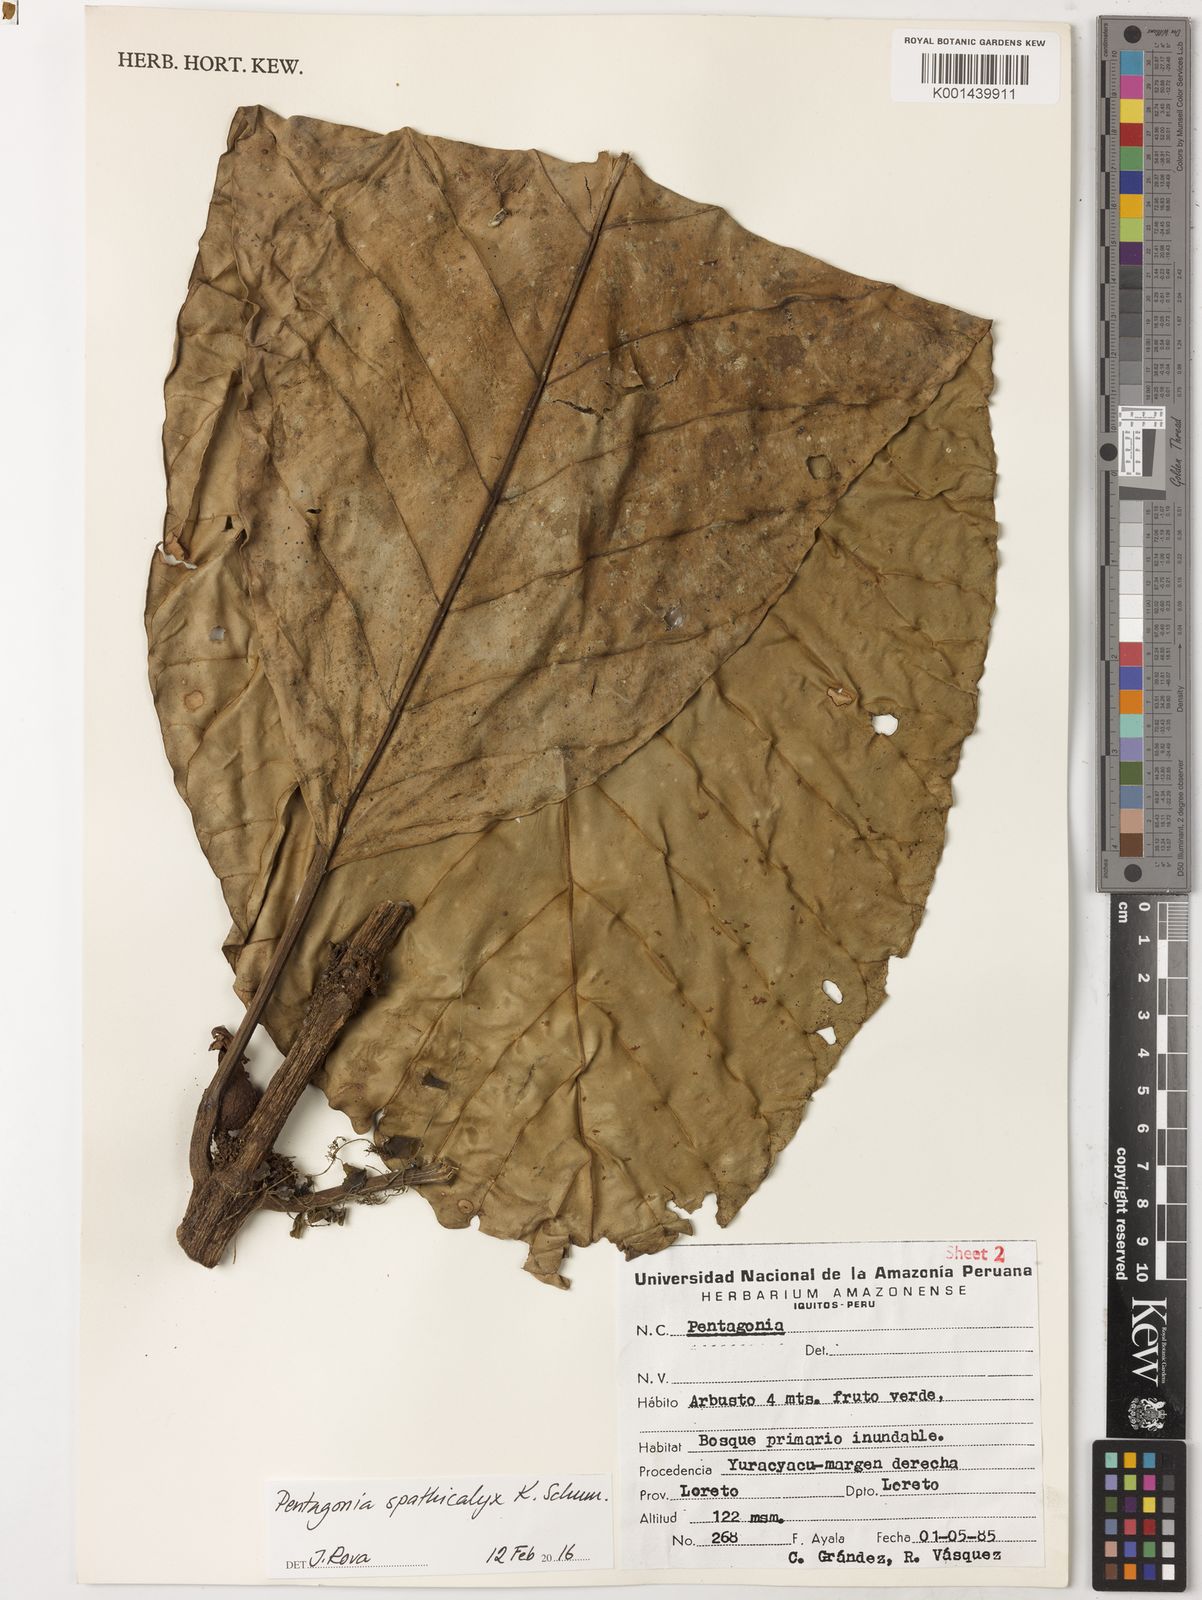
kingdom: Plantae
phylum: Tracheophyta
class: Magnoliopsida
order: Gentianales
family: Rubiaceae
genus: Pentagonia
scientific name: Pentagonia spathicalyx
